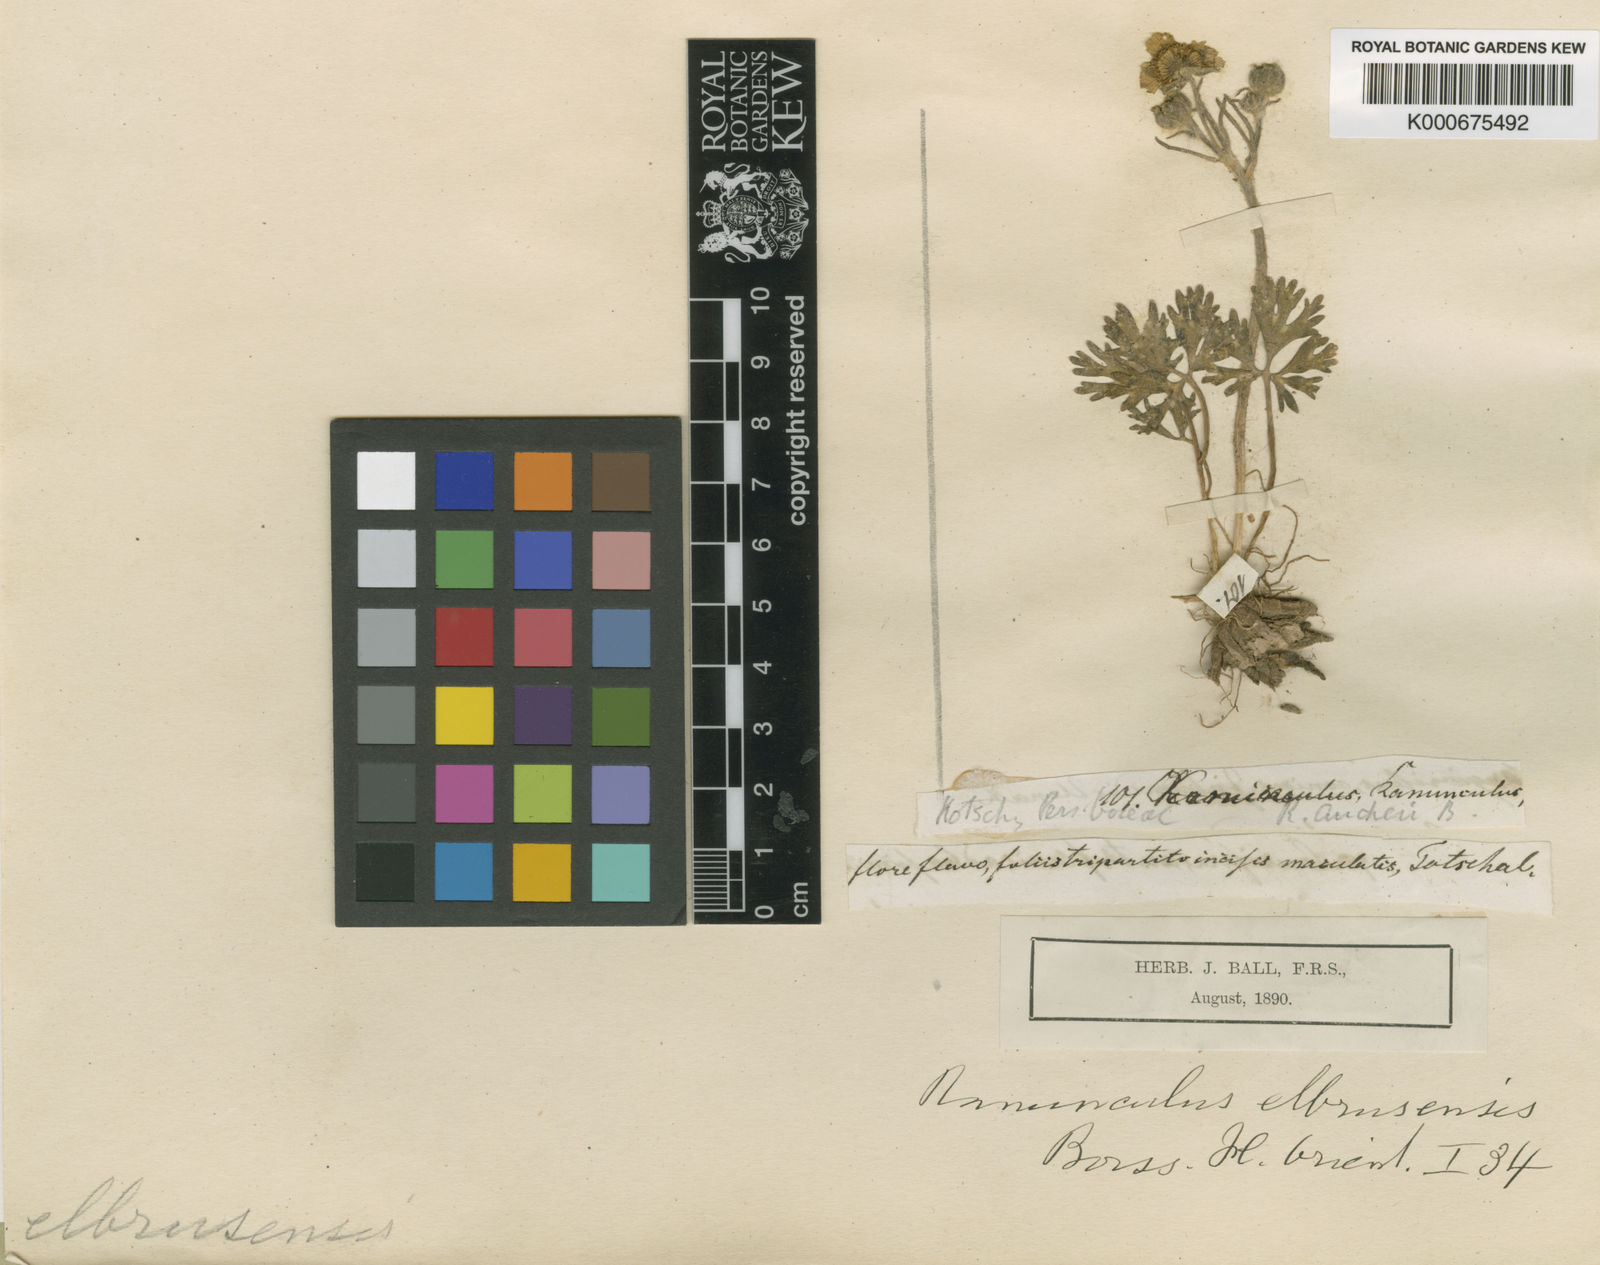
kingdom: Plantae
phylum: Tracheophyta
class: Magnoliopsida
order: Ranunculales
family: Ranunculaceae
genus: Ranunculus
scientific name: Ranunculus elbrusensis
